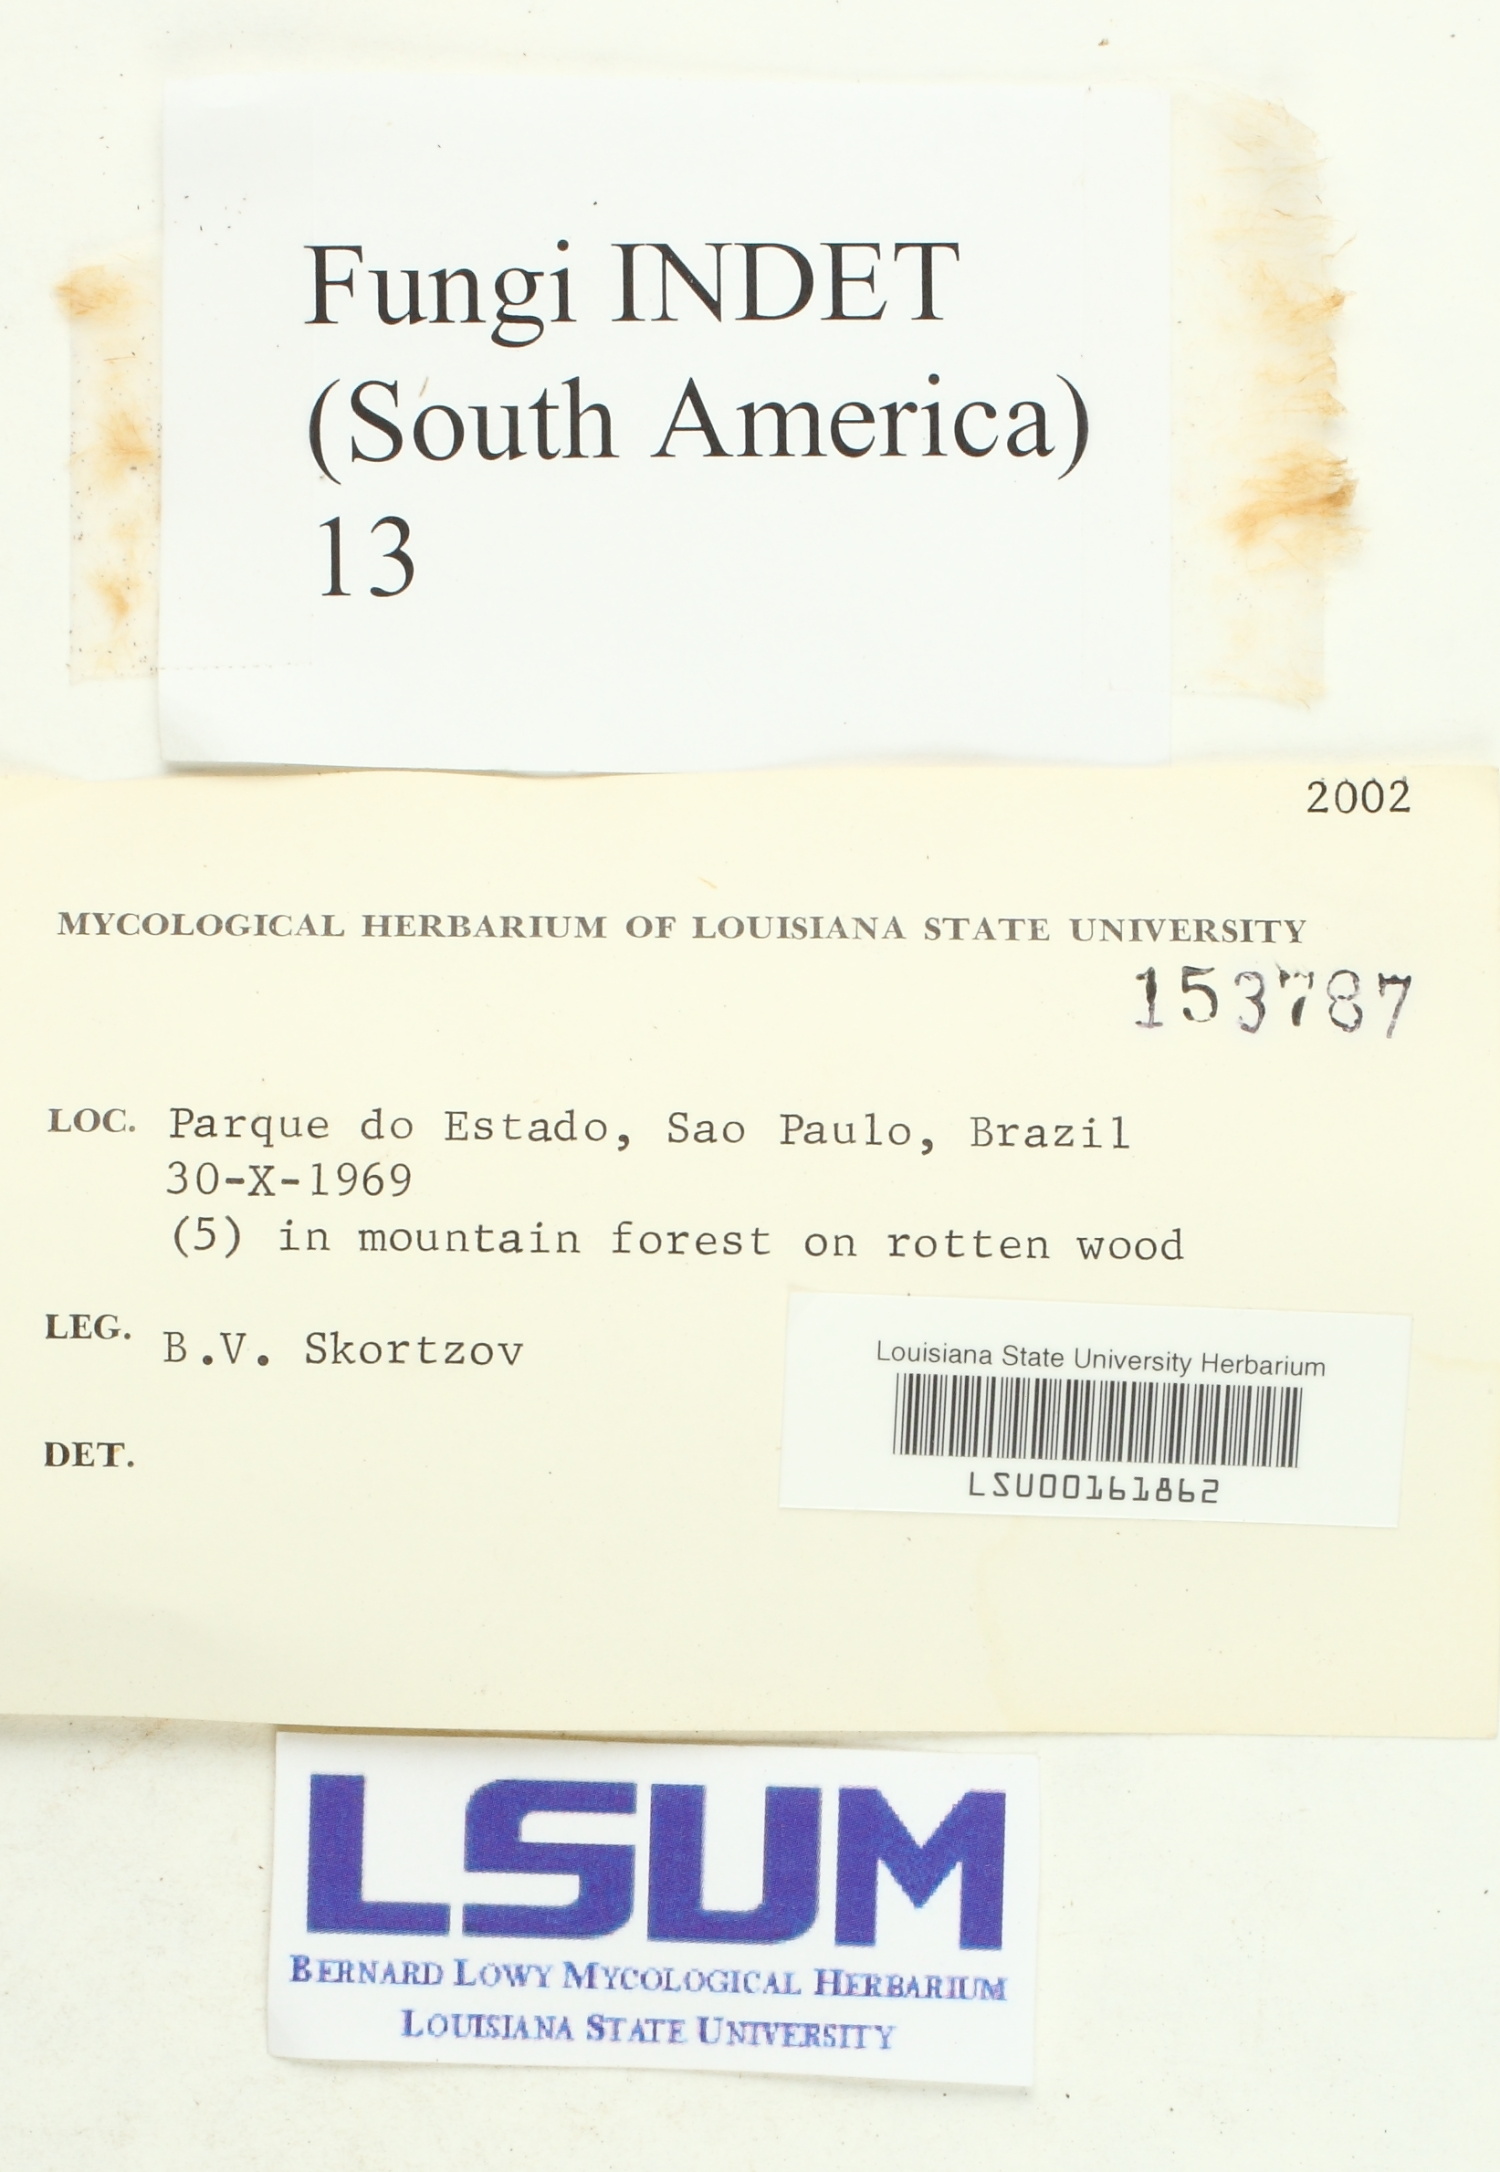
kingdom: Fungi
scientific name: Fungi
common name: Fungi
